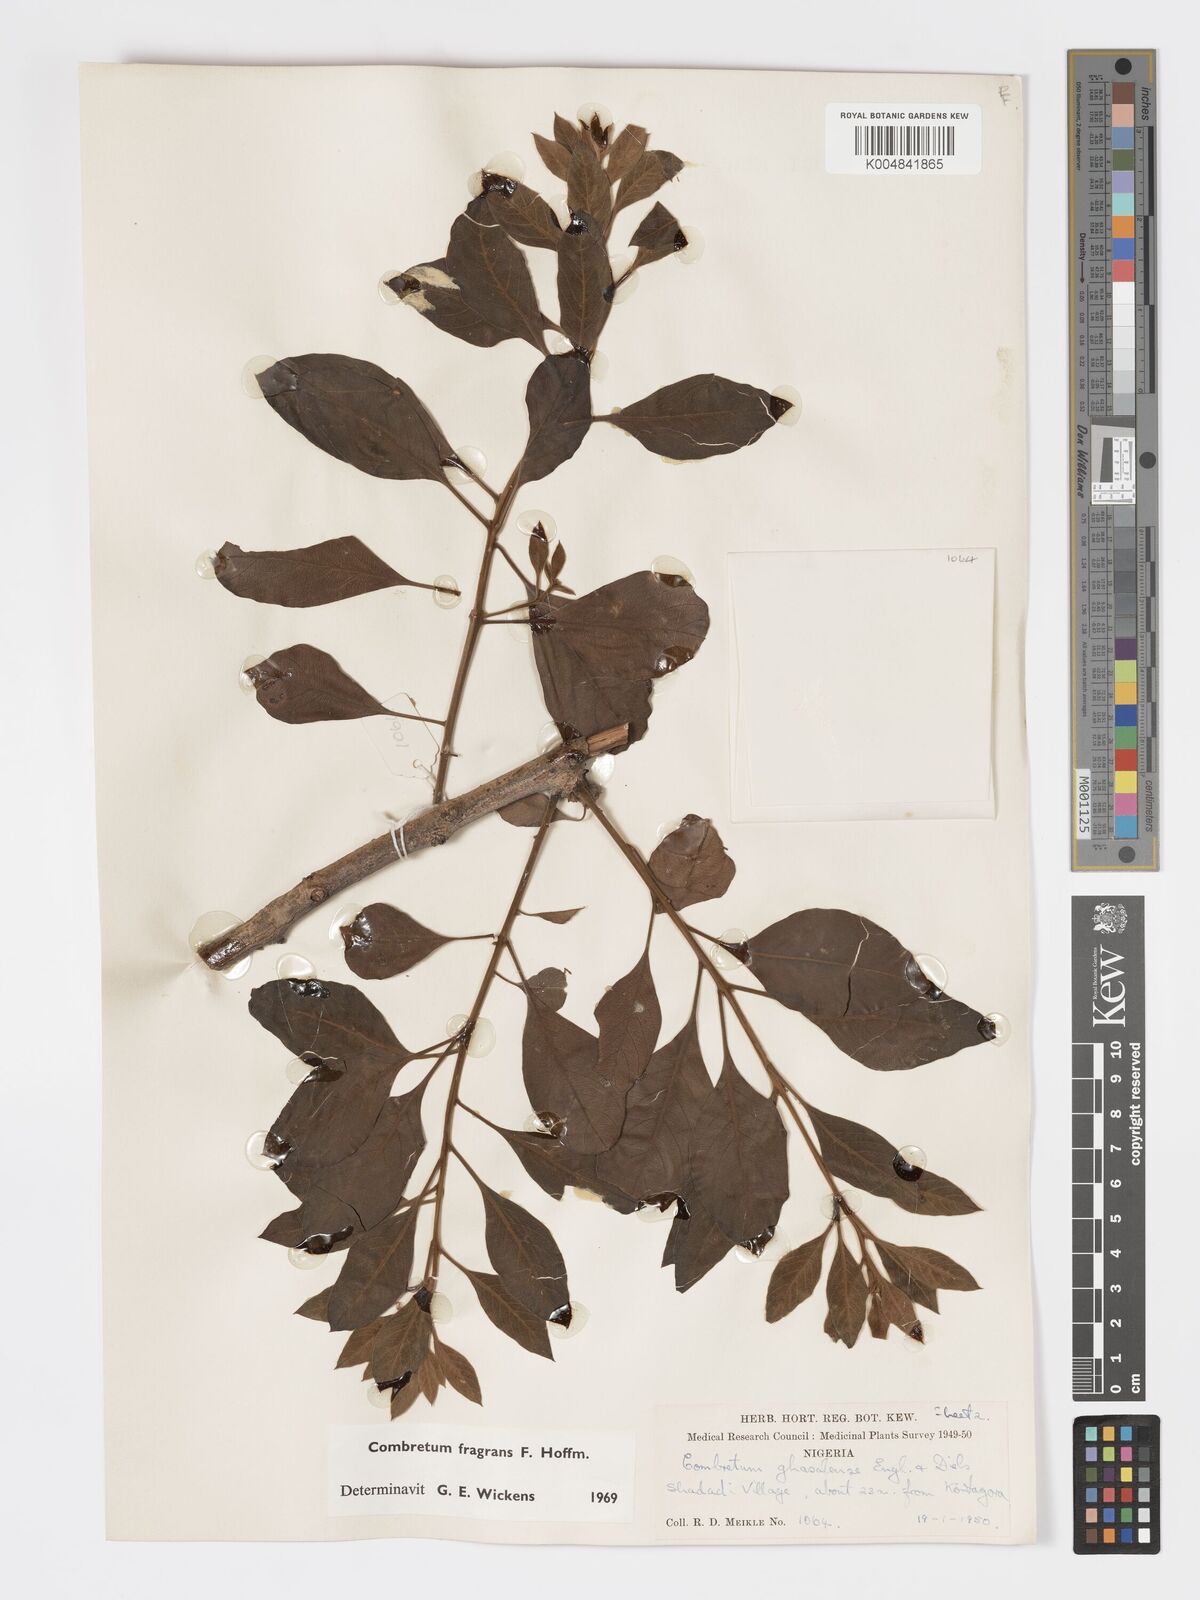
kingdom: Plantae
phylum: Tracheophyta
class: Magnoliopsida
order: Myrtales
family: Combretaceae
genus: Combretum
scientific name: Combretum adenogonium
